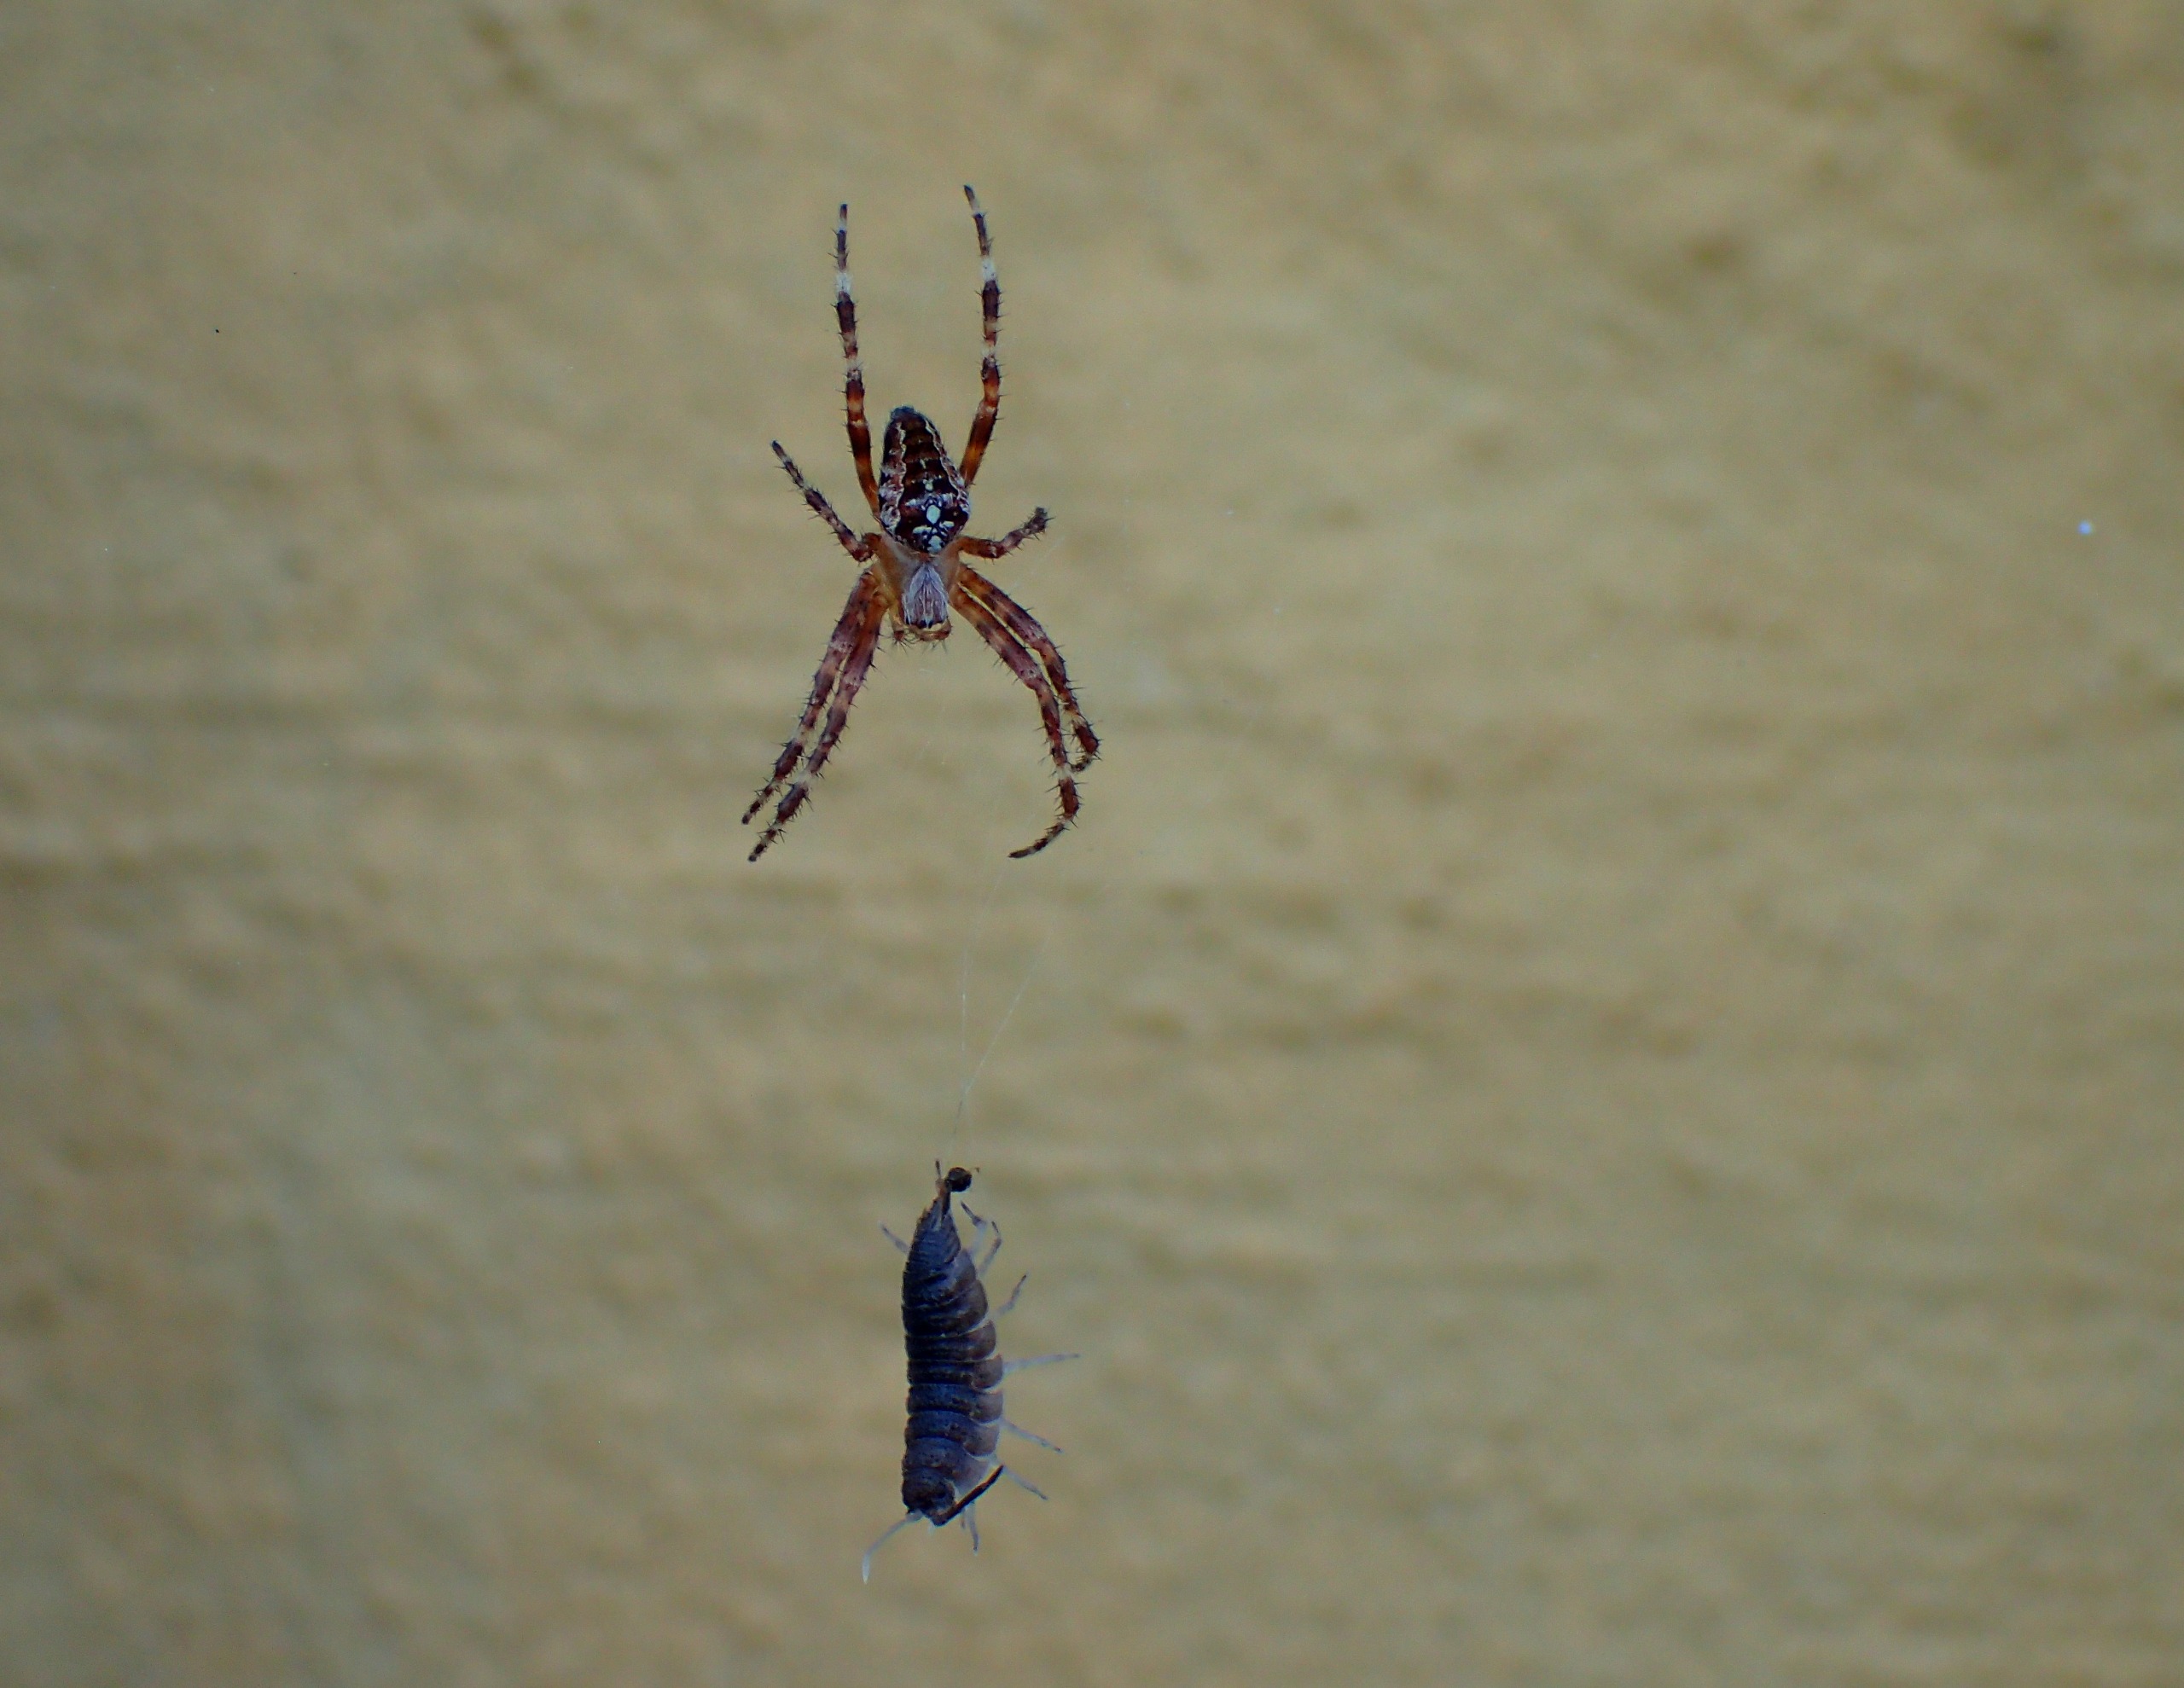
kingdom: Animalia
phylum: Arthropoda
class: Malacostraca
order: Isopoda
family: Porcellionidae
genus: Porcellio
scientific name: Porcellio scaber
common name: Grå bænkebider
